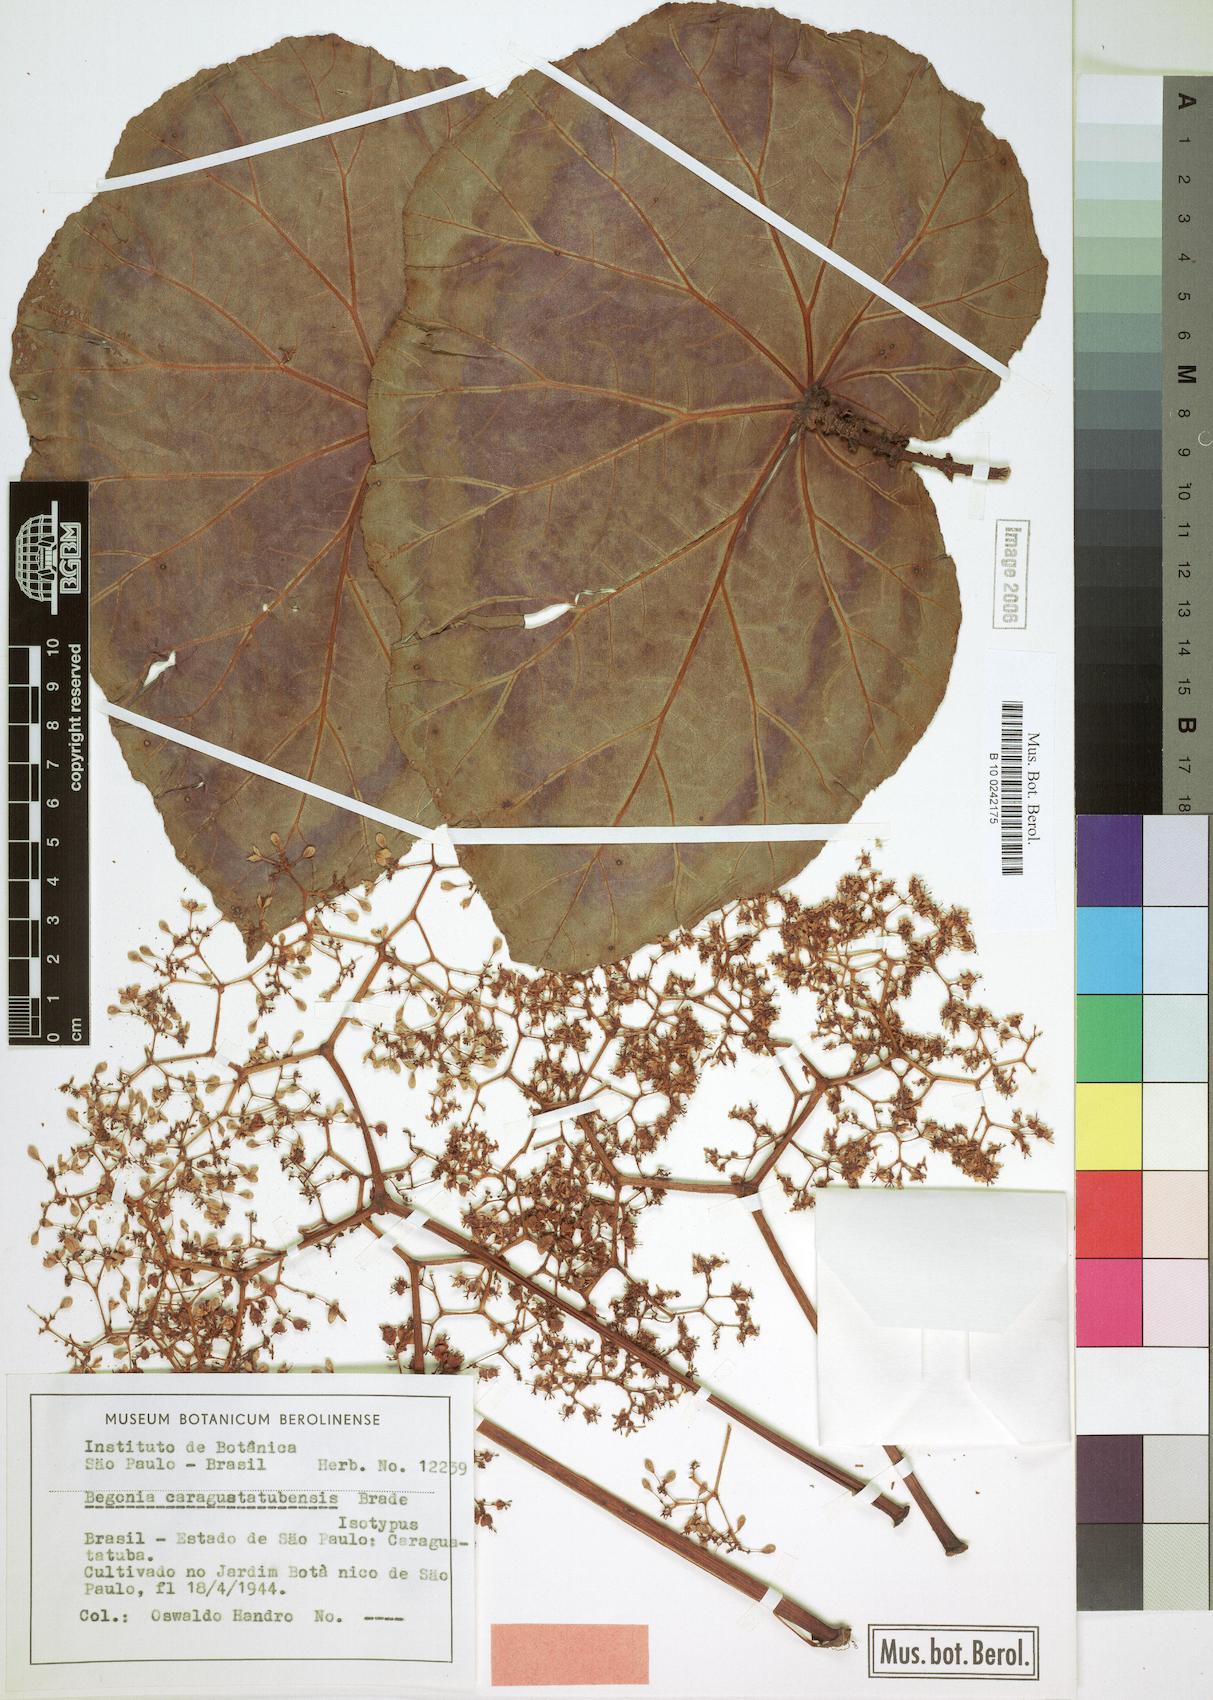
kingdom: Plantae
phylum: Tracheophyta
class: Magnoliopsida
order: Cucurbitales
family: Begoniaceae
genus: Begonia
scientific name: Begonia caraguatatubensis
